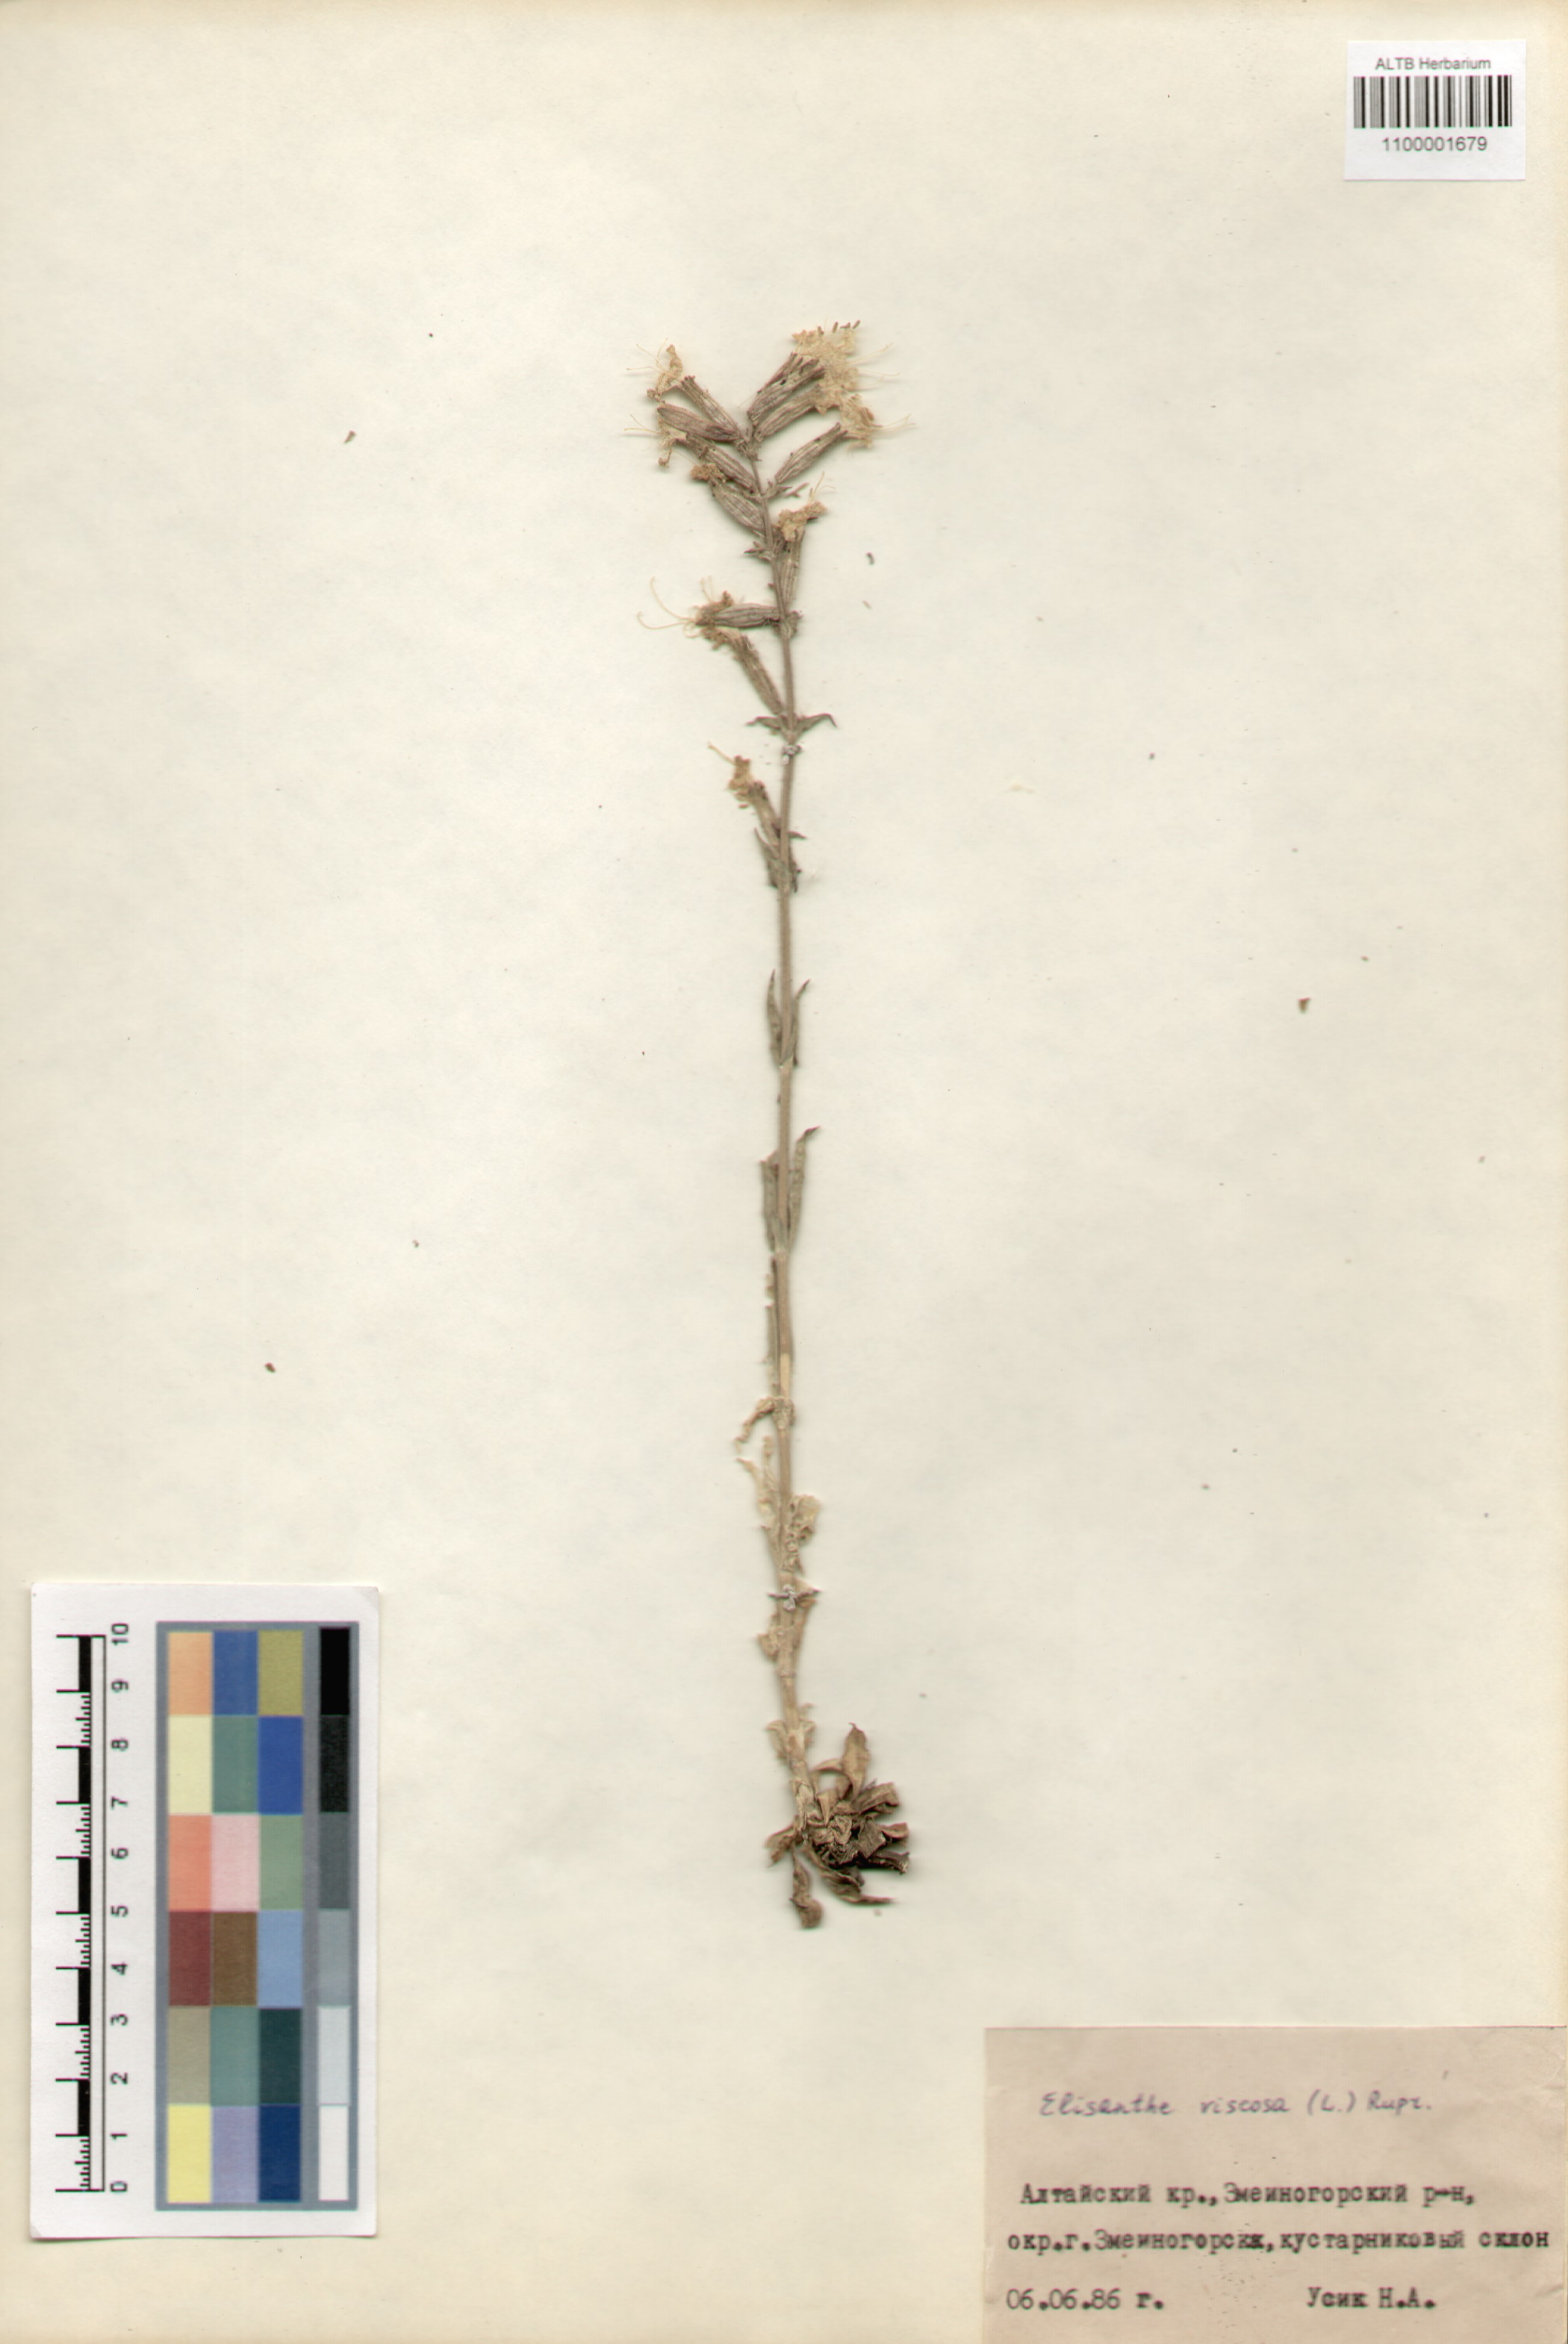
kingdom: Plantae
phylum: Tracheophyta
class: Magnoliopsida
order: Caryophyllales
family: Caryophyllaceae
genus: Silene
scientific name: Silene viscosa
